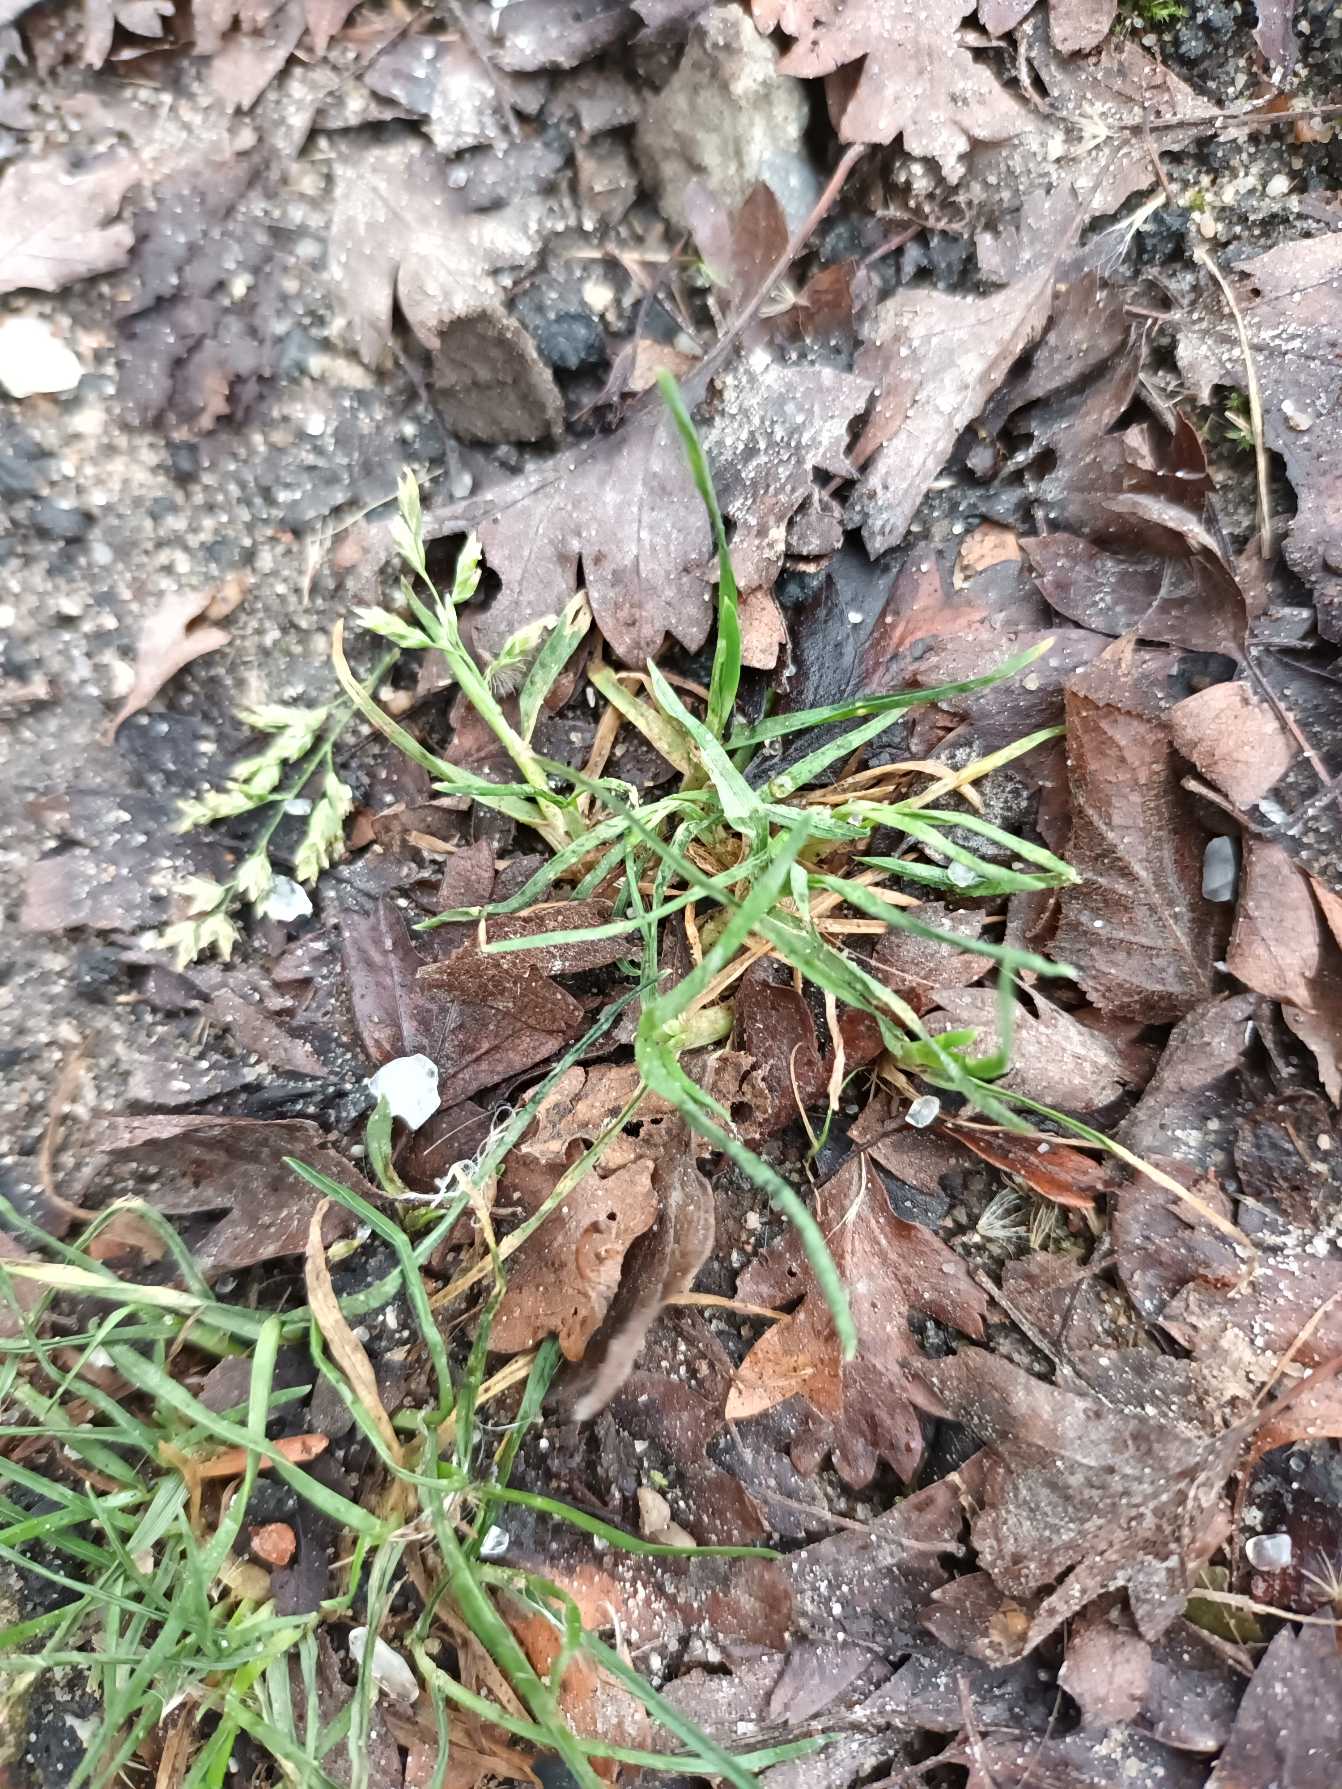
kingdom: Plantae
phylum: Tracheophyta
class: Liliopsida
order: Poales
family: Poaceae
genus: Poa
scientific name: Poa annua
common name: Enårig rapgræs
